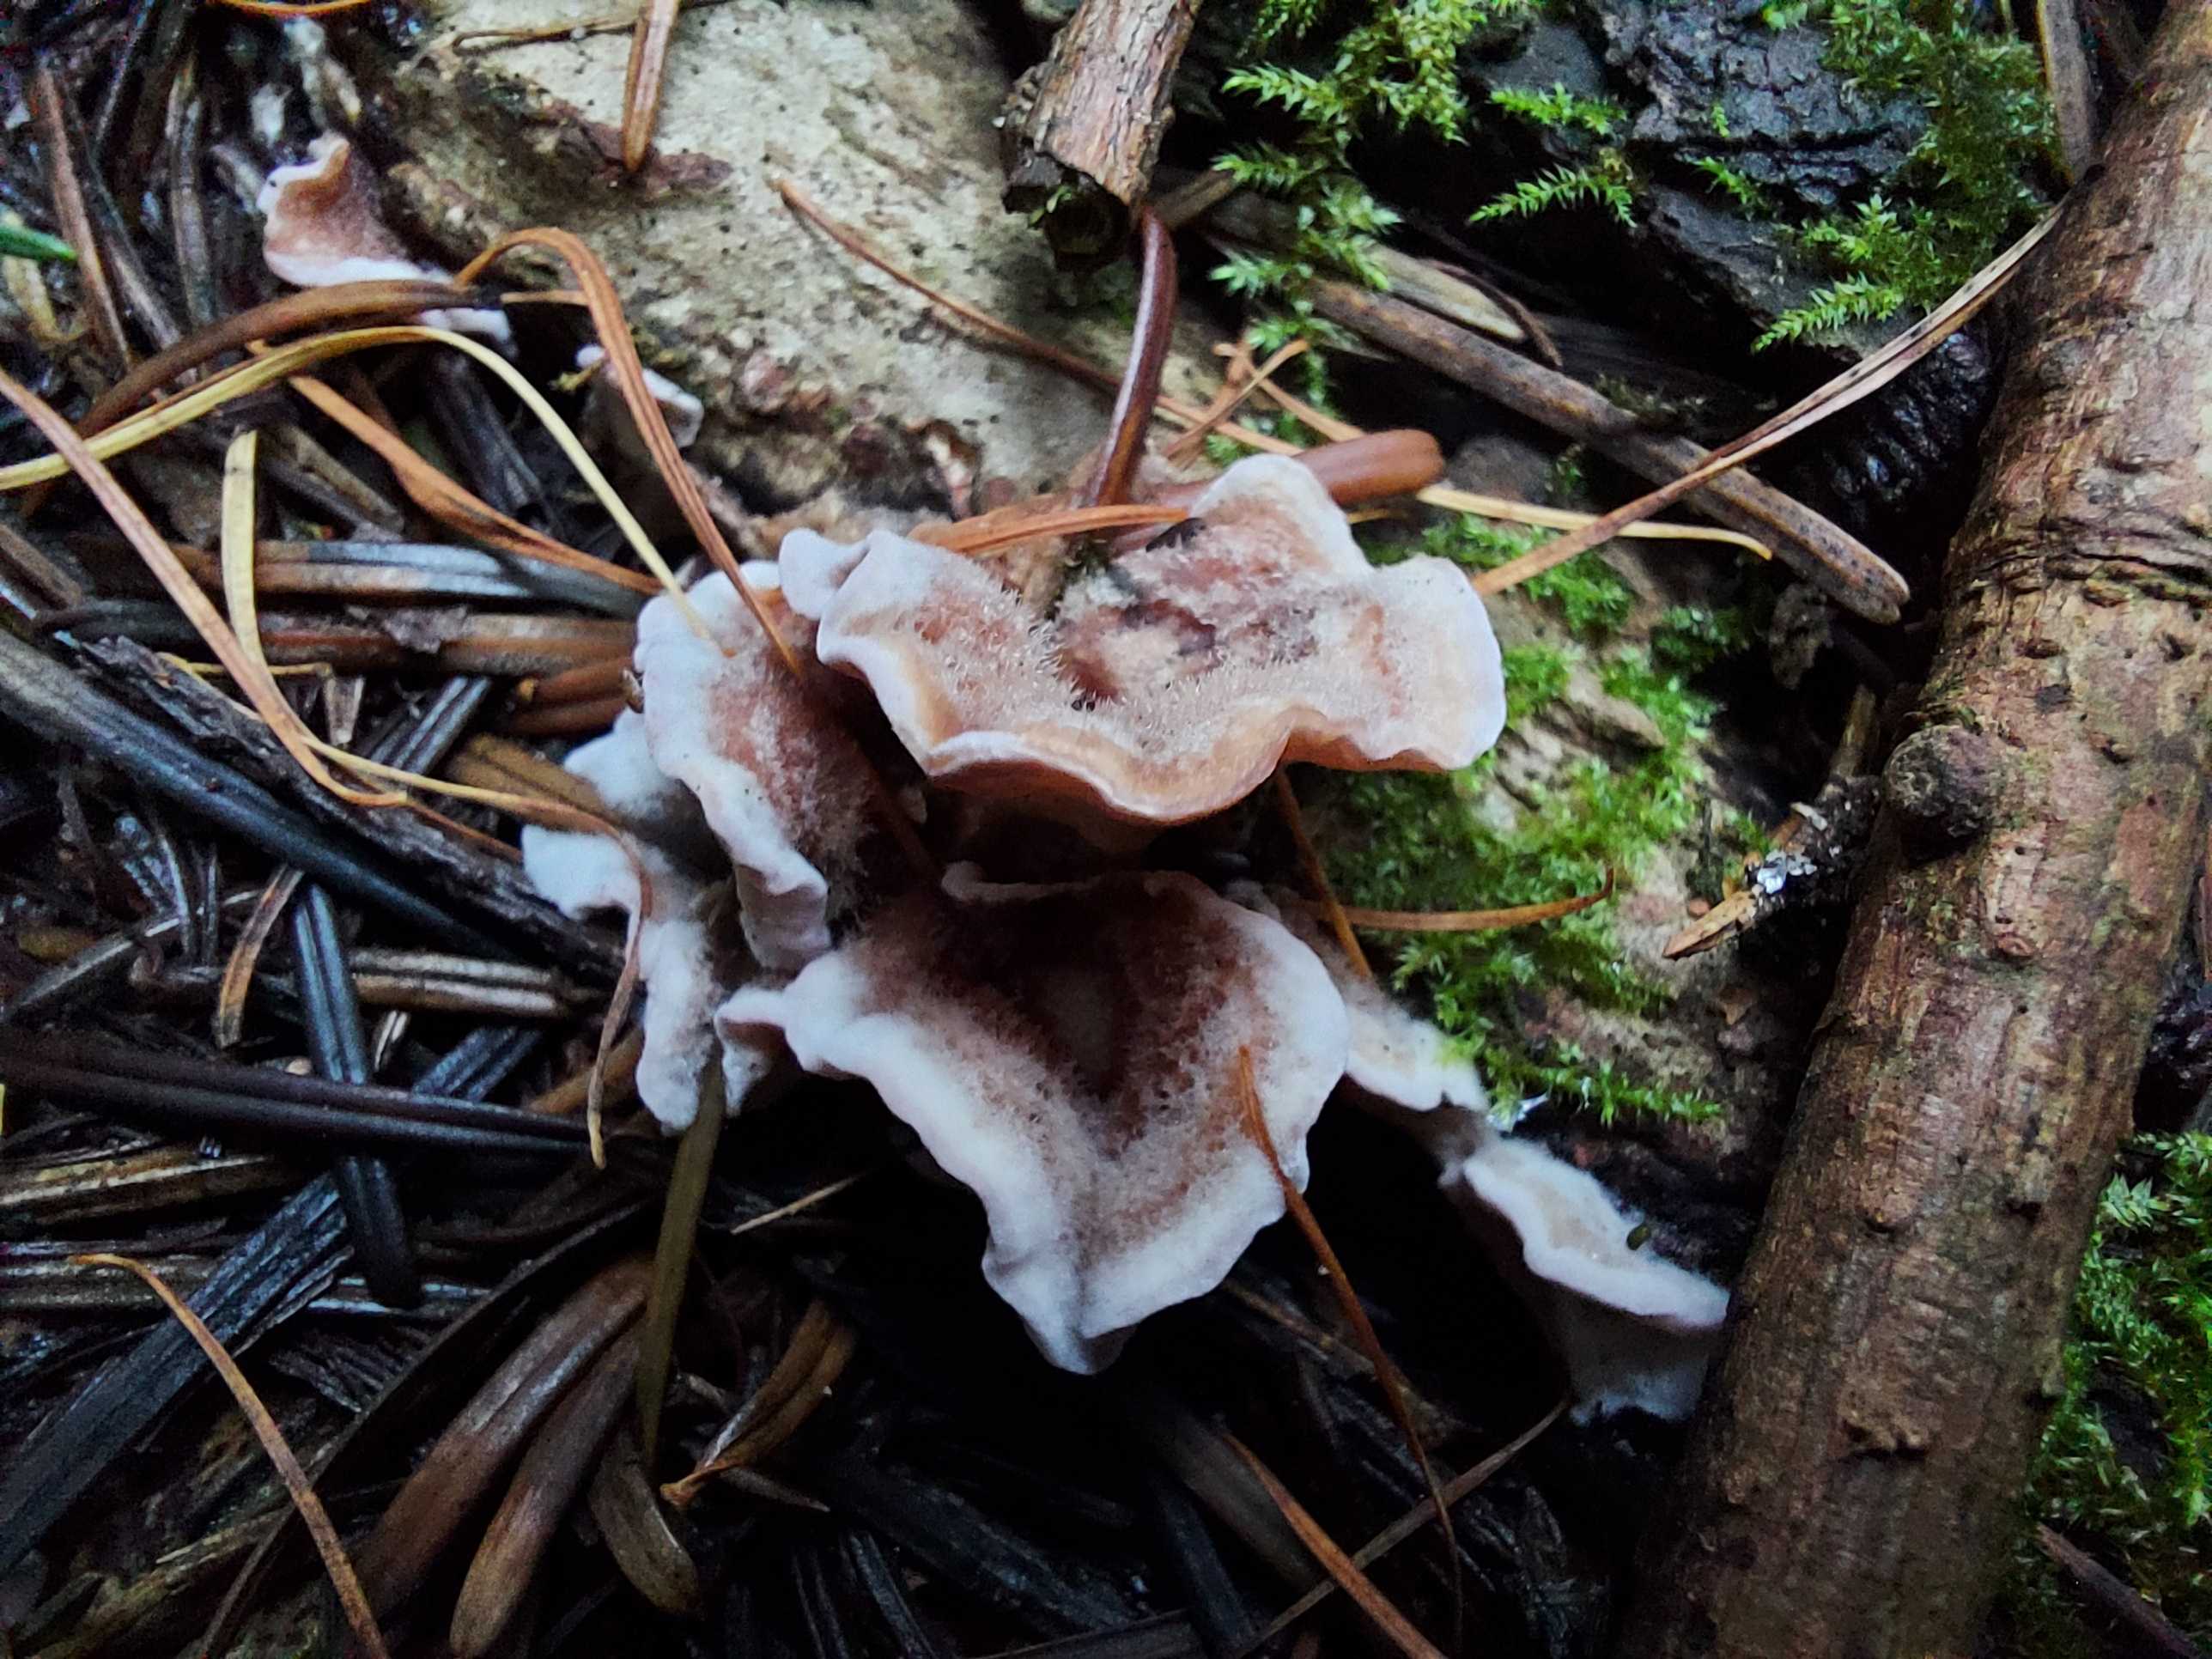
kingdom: Fungi
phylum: Basidiomycota
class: Agaricomycetes
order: Agaricales
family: Cyphellaceae
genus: Chondrostereum
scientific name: Chondrostereum purpureum
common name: purpurlædersvamp
